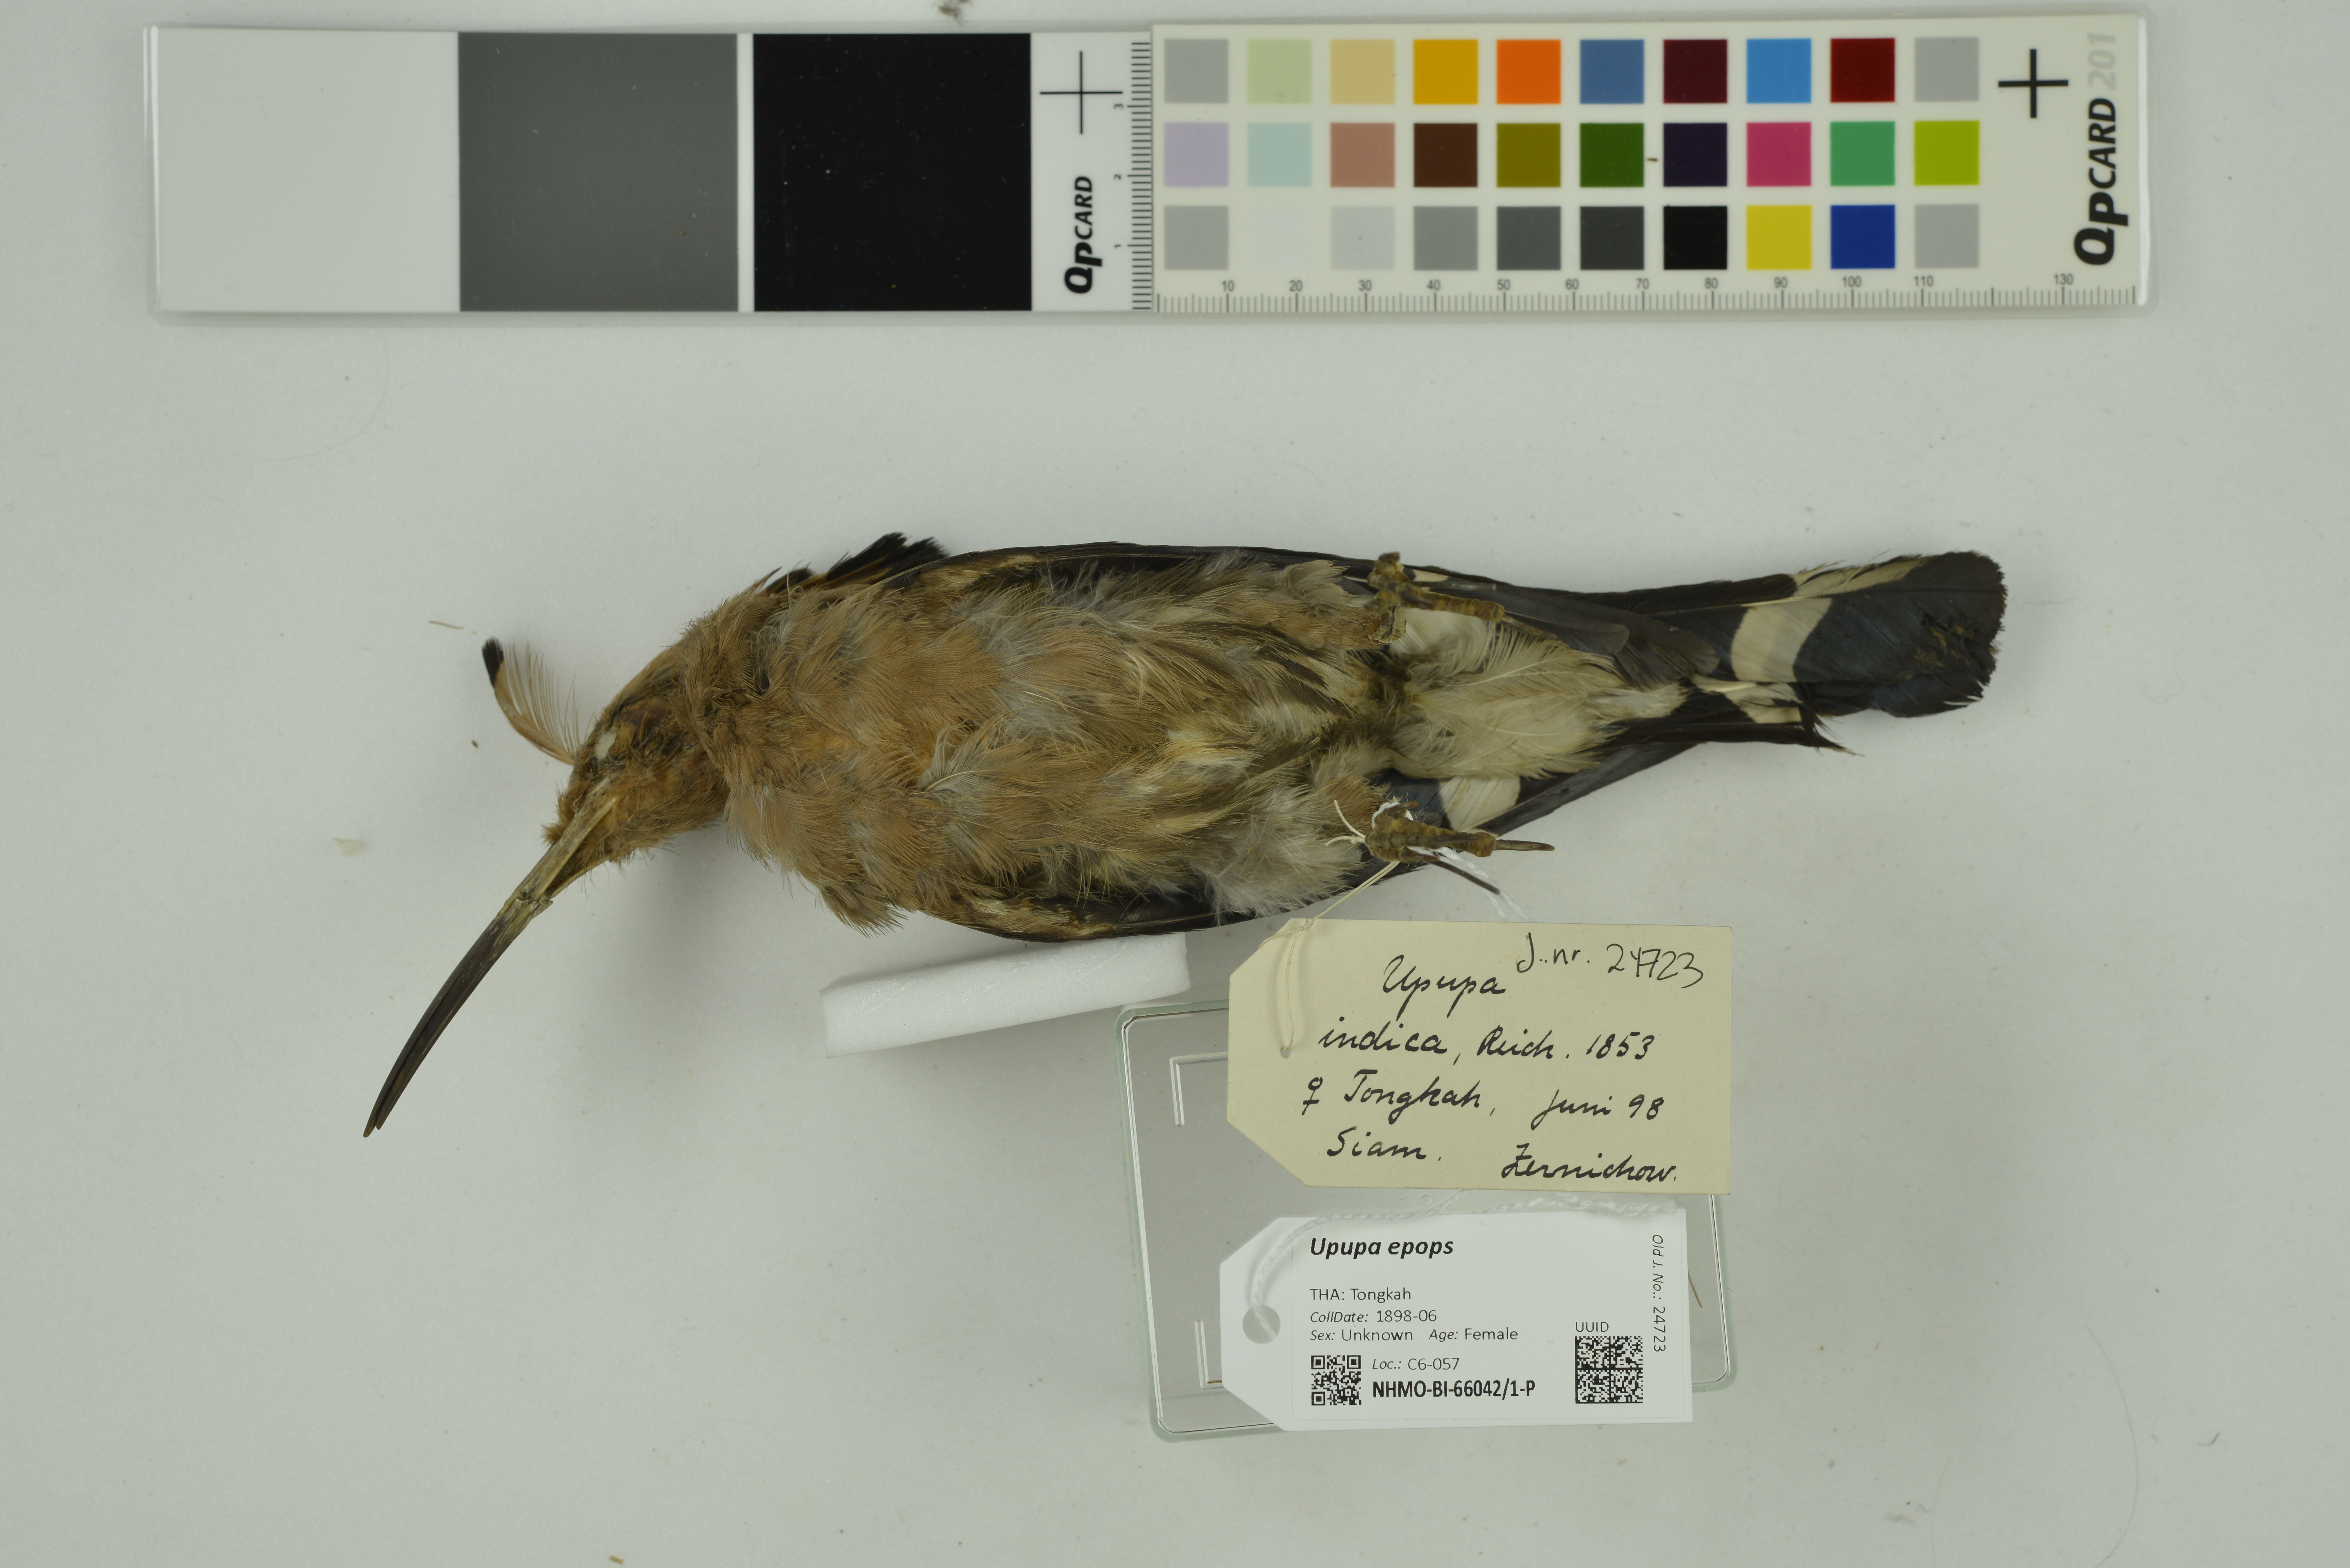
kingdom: Animalia
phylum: Chordata
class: Aves
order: Bucerotiformes
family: Upupidae
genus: Upupa
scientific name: Upupa epops
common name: Eurasian hoopoe
